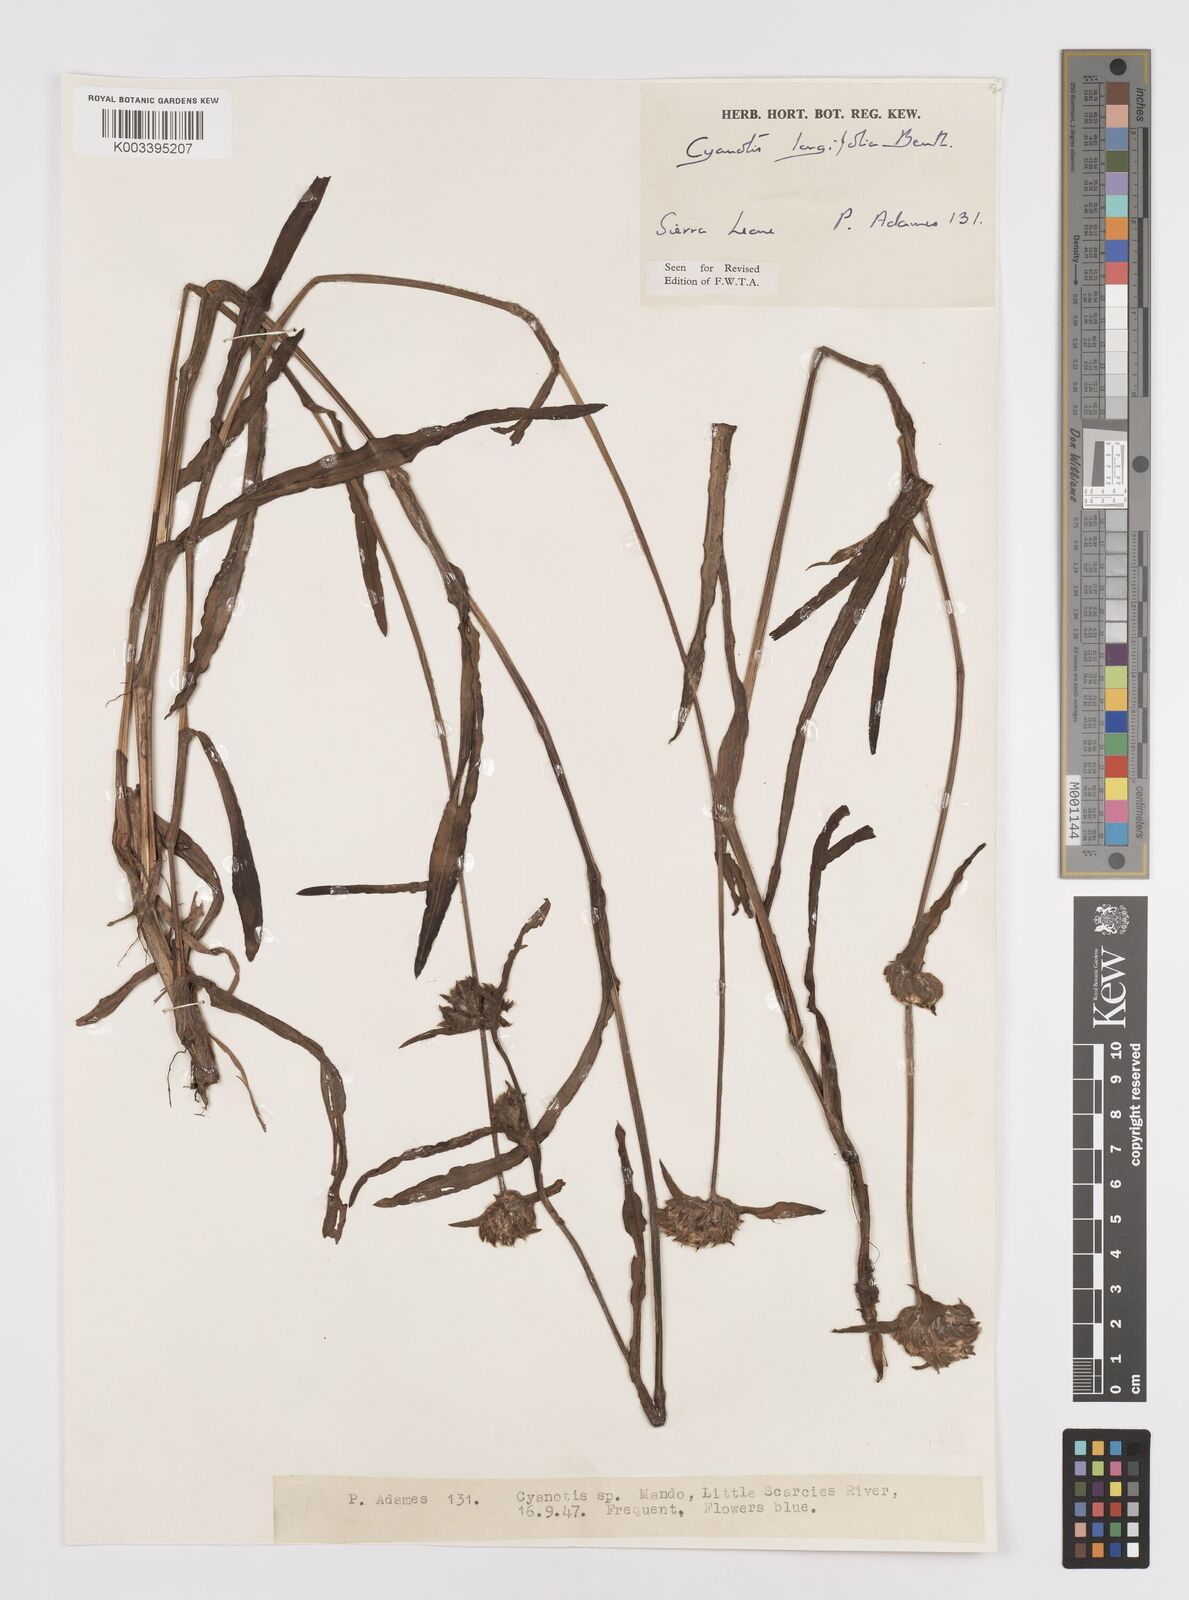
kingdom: Plantae
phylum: Tracheophyta
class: Liliopsida
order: Commelinales
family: Commelinaceae
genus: Cyanotis
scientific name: Cyanotis
